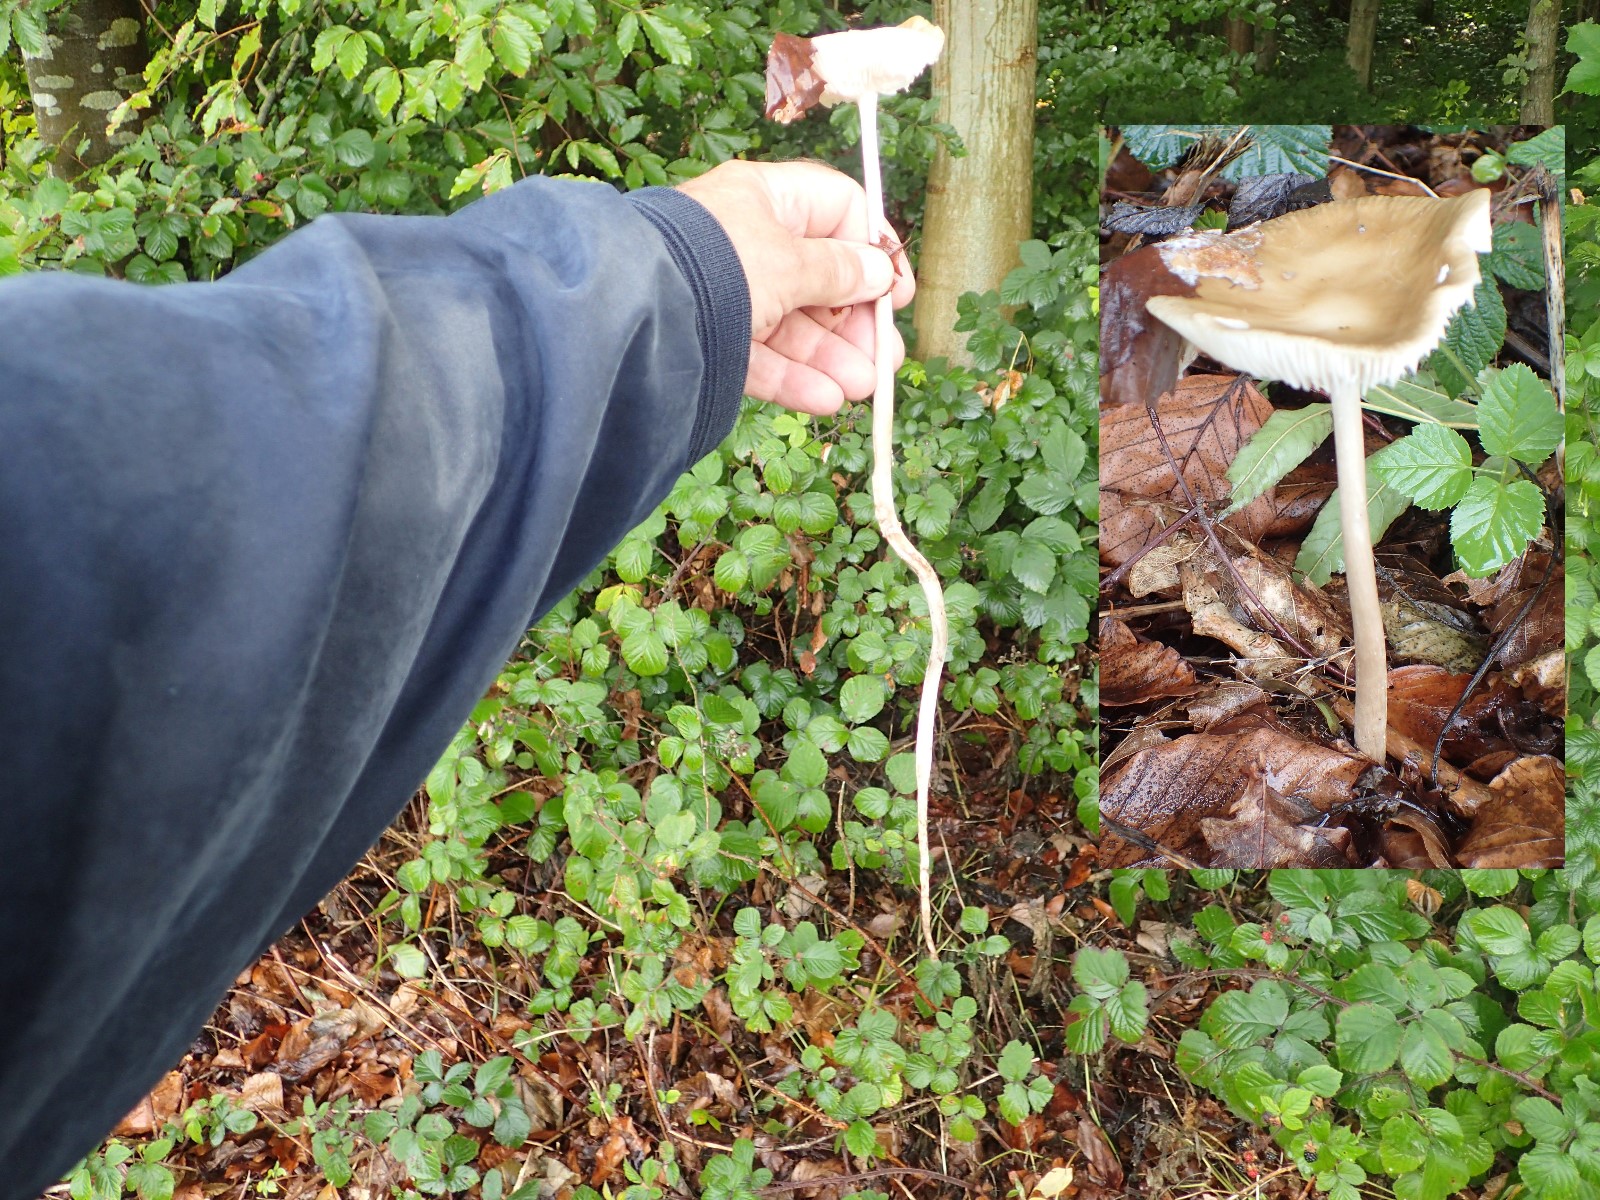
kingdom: Fungi
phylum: Basidiomycota
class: Agaricomycetes
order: Agaricales
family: Physalacriaceae
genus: Hymenopellis
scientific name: Hymenopellis radicata
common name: almindelig pælerodshat
